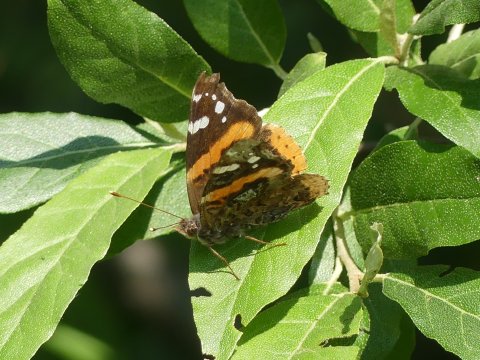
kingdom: Animalia
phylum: Arthropoda
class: Insecta
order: Lepidoptera
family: Nymphalidae
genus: Vanessa
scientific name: Vanessa atalanta
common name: Red Admiral
